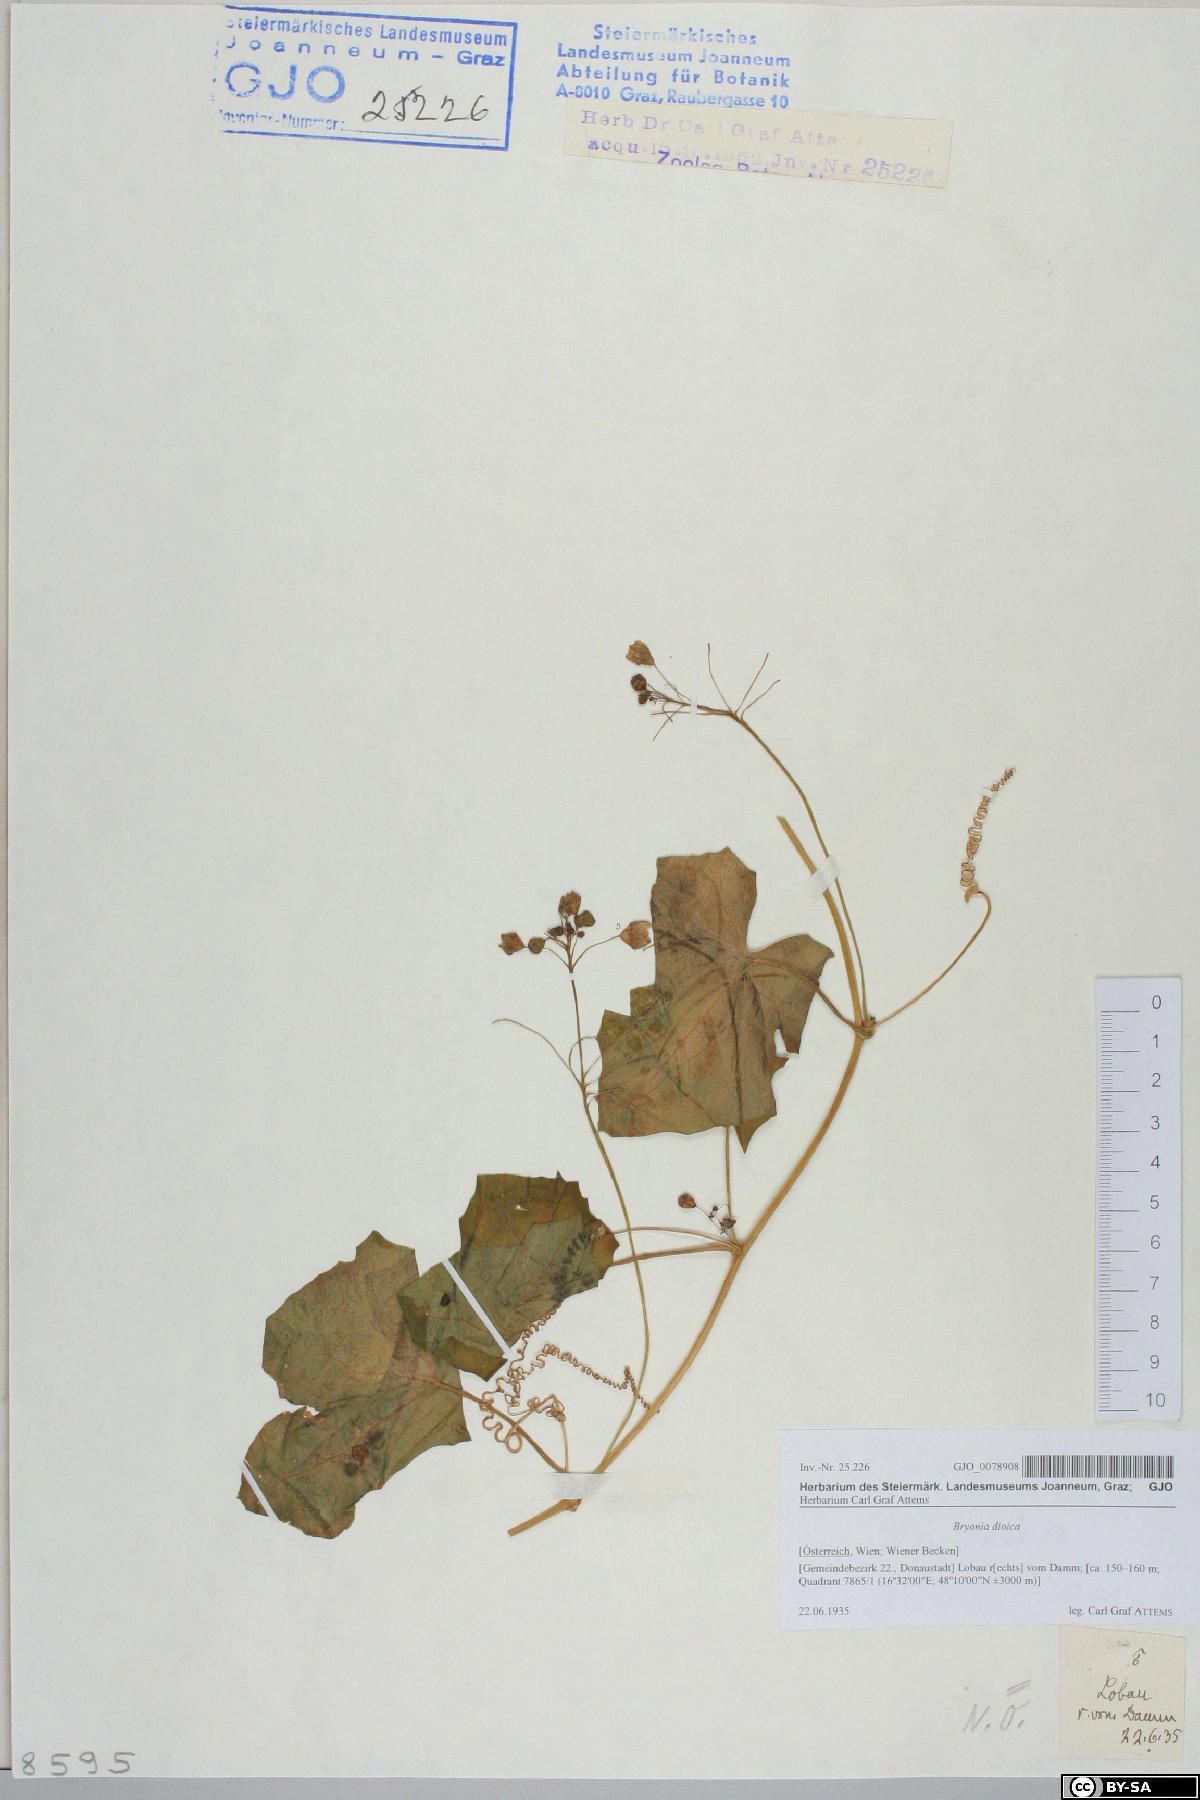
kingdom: Plantae
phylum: Tracheophyta
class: Magnoliopsida
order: Cucurbitales
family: Cucurbitaceae
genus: Bryonia
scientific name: Bryonia dioica
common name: White bryony
